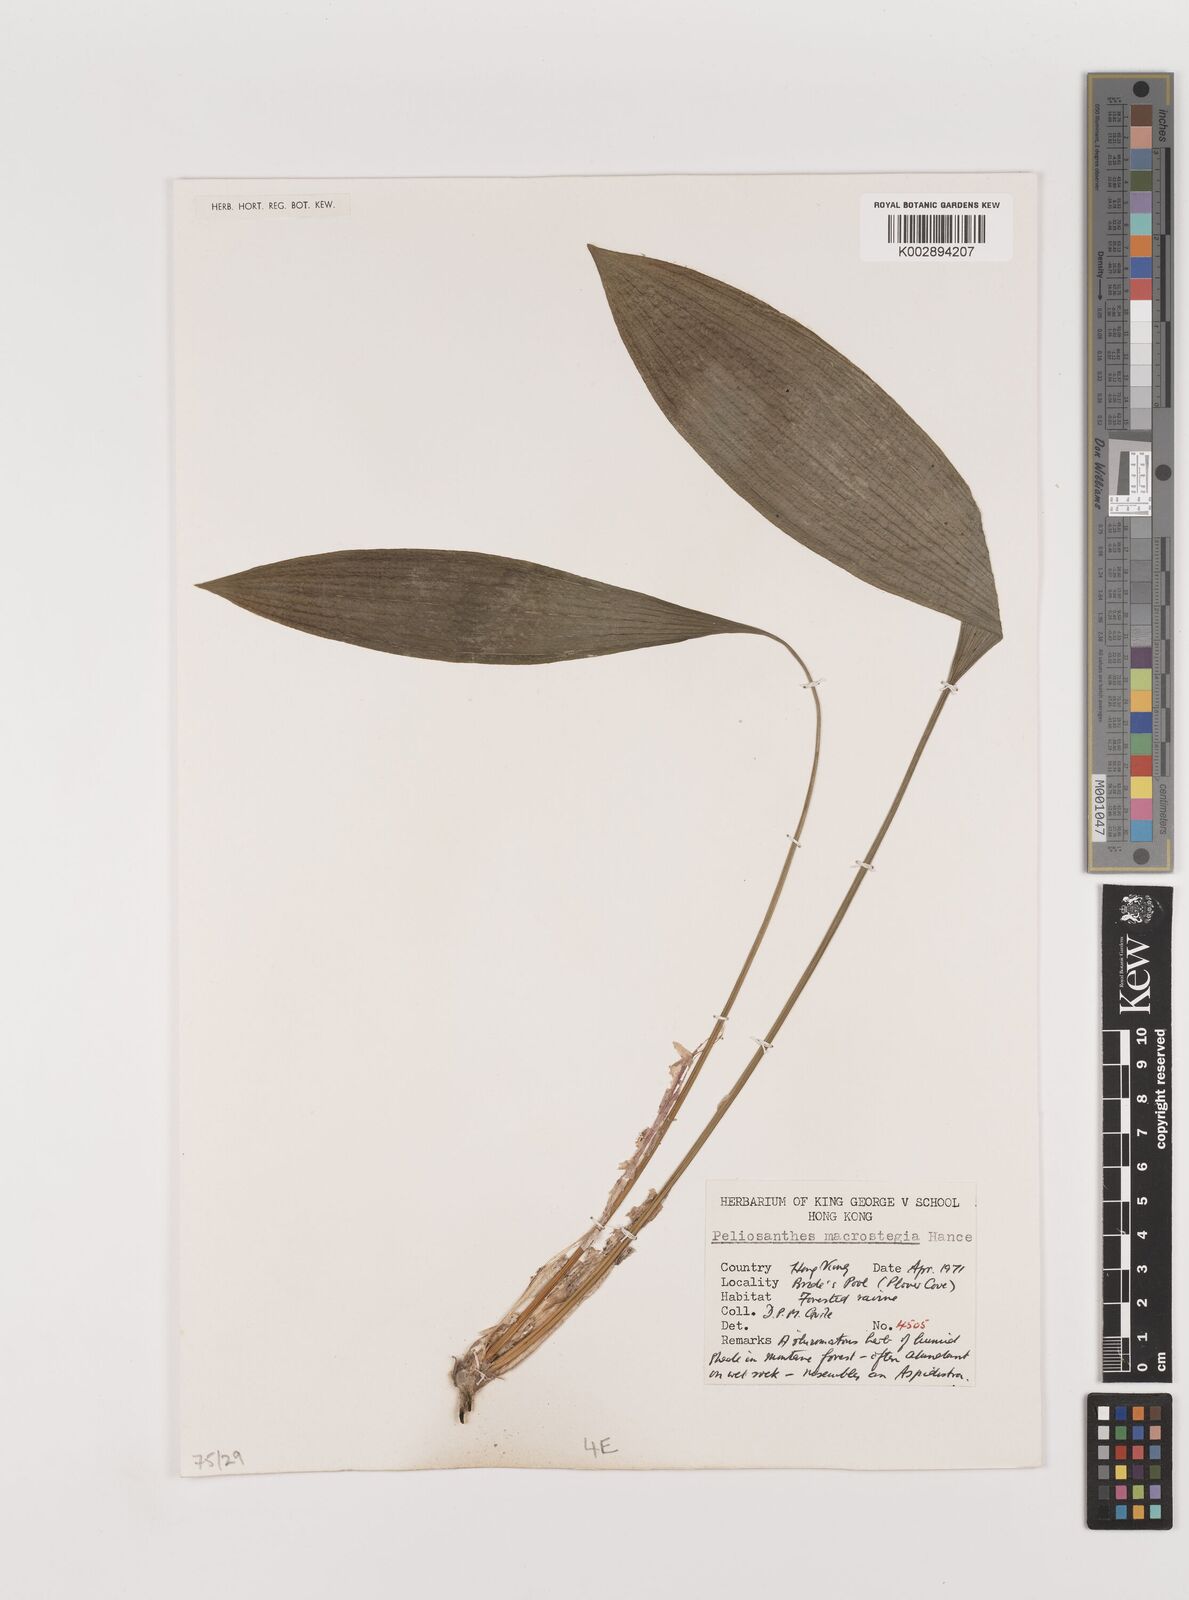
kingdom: Plantae
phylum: Tracheophyta
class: Liliopsida
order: Asparagales
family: Asparagaceae
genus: Peliosanthes
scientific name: Peliosanthes teta
